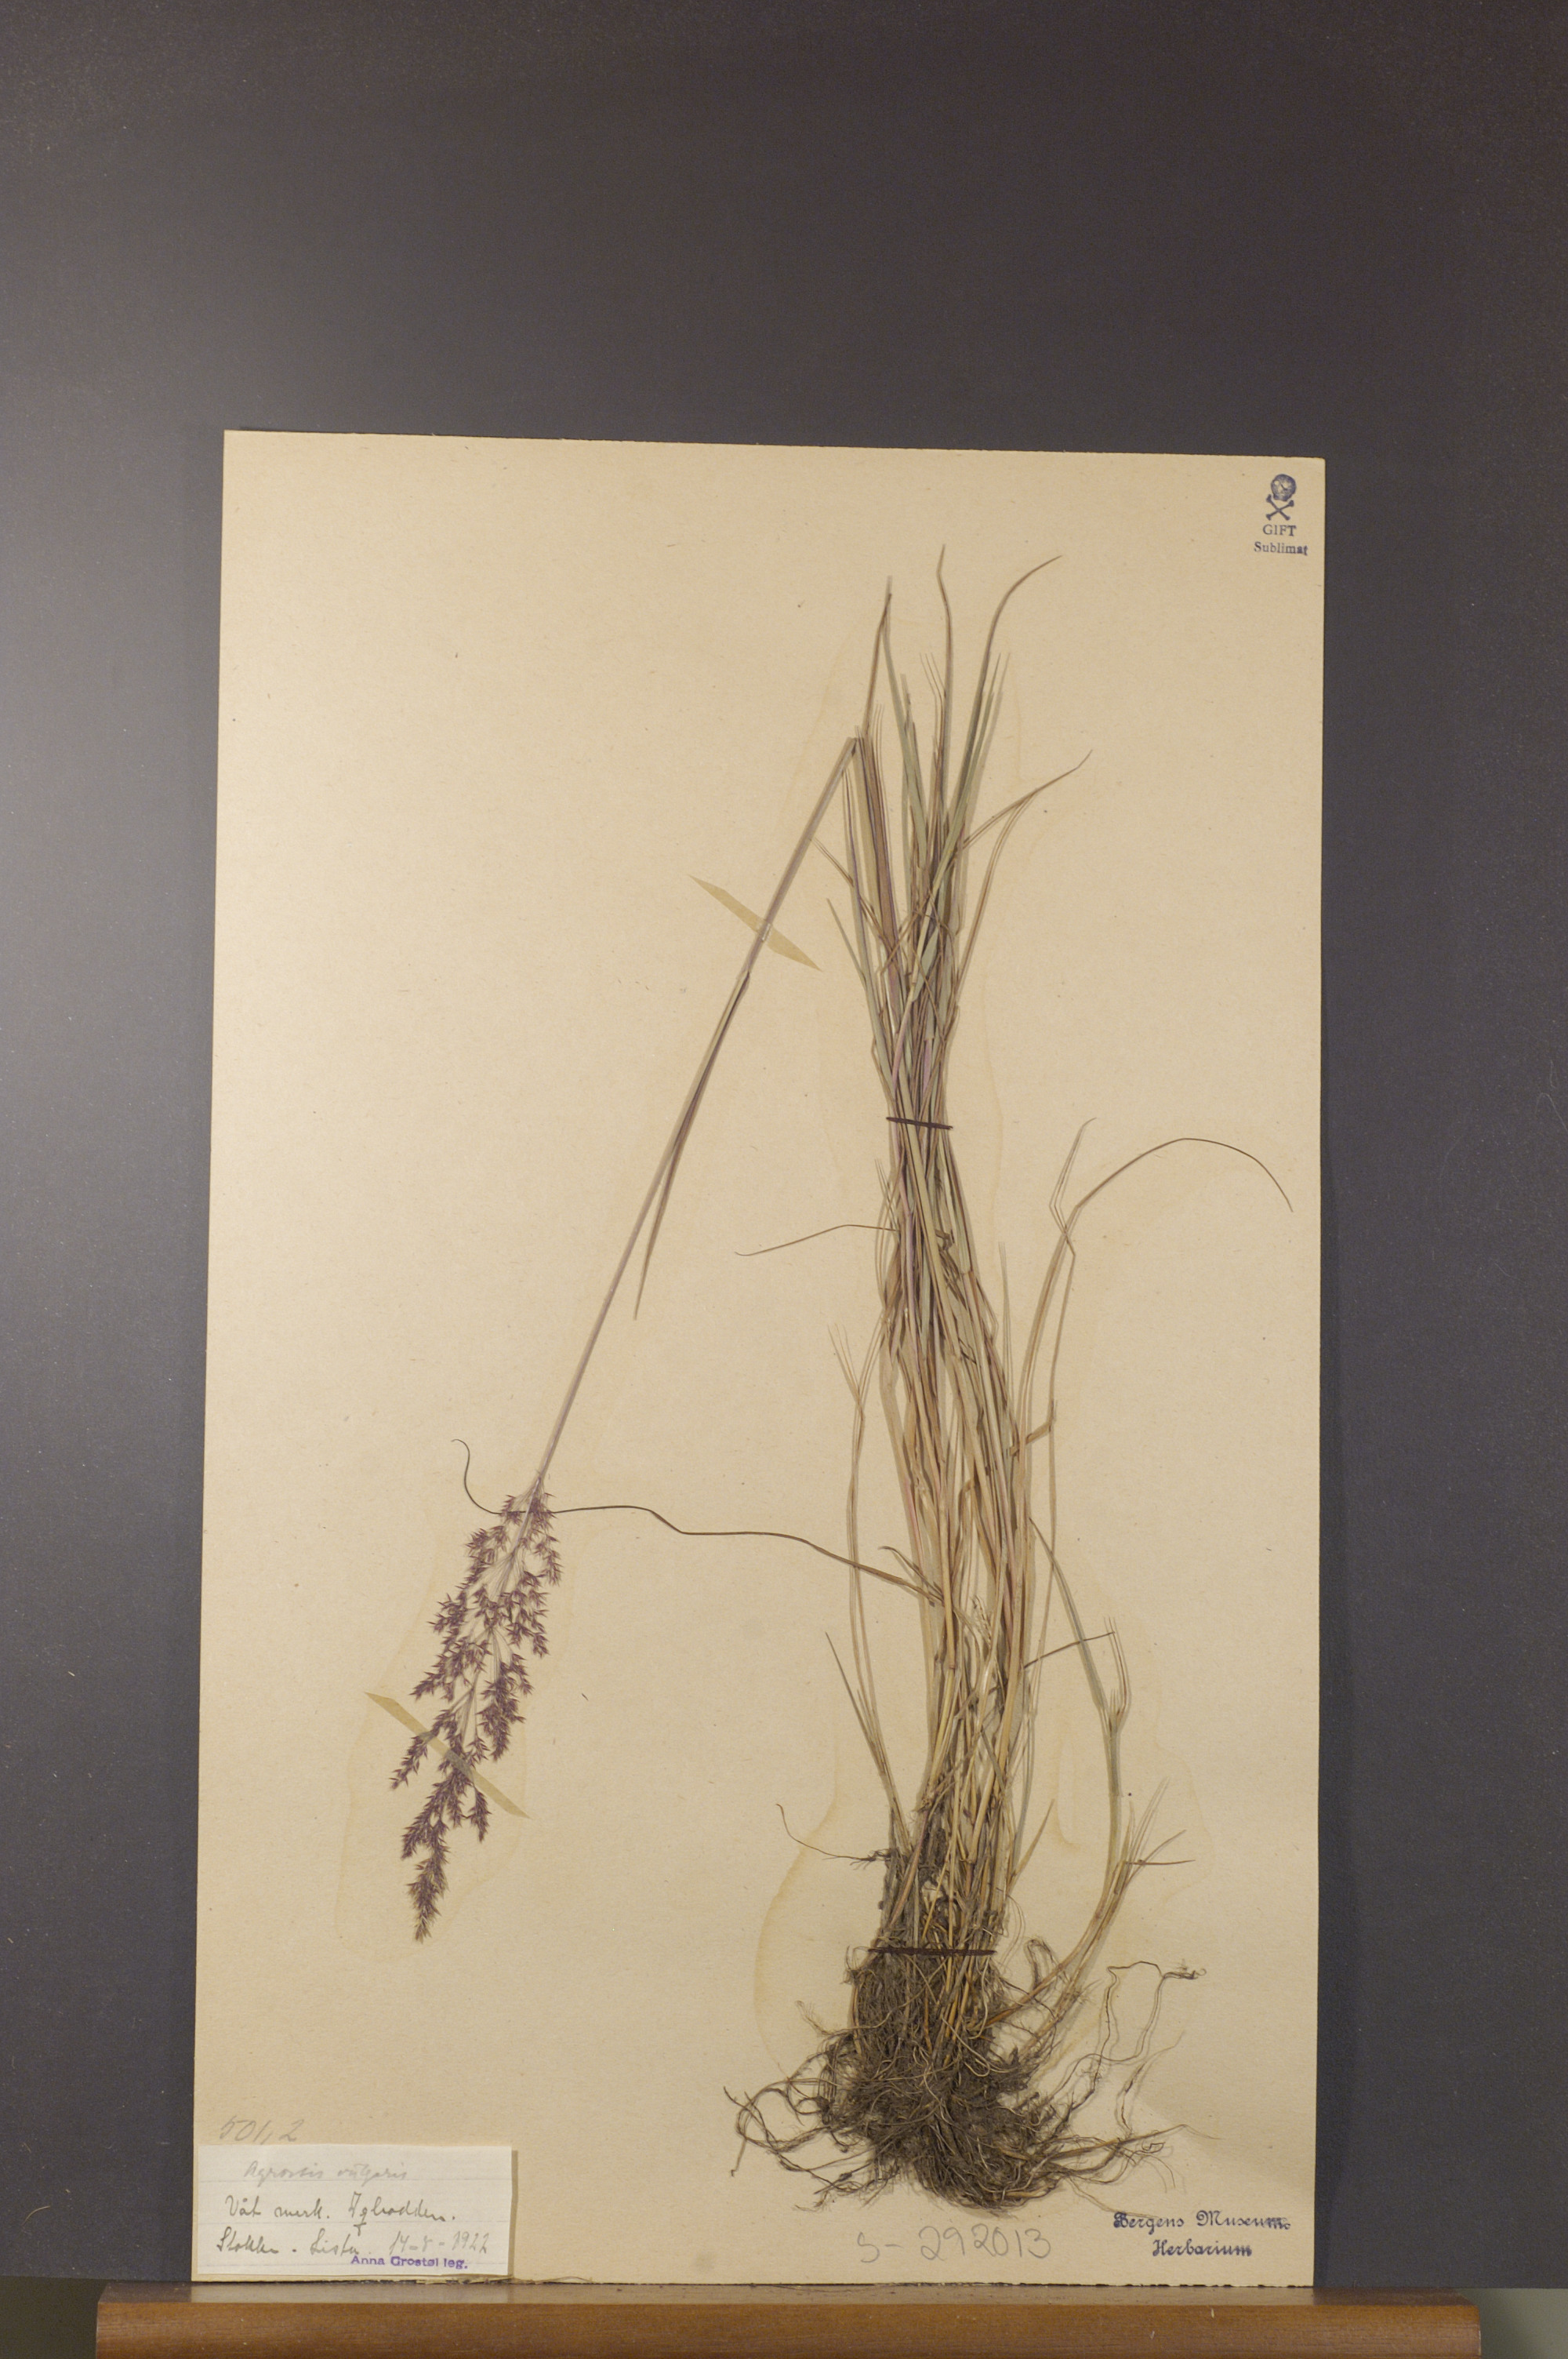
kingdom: Plantae
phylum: Tracheophyta
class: Liliopsida
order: Poales
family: Poaceae
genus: Agrostis
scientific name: Agrostis capillaris
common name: Colonial bentgrass
